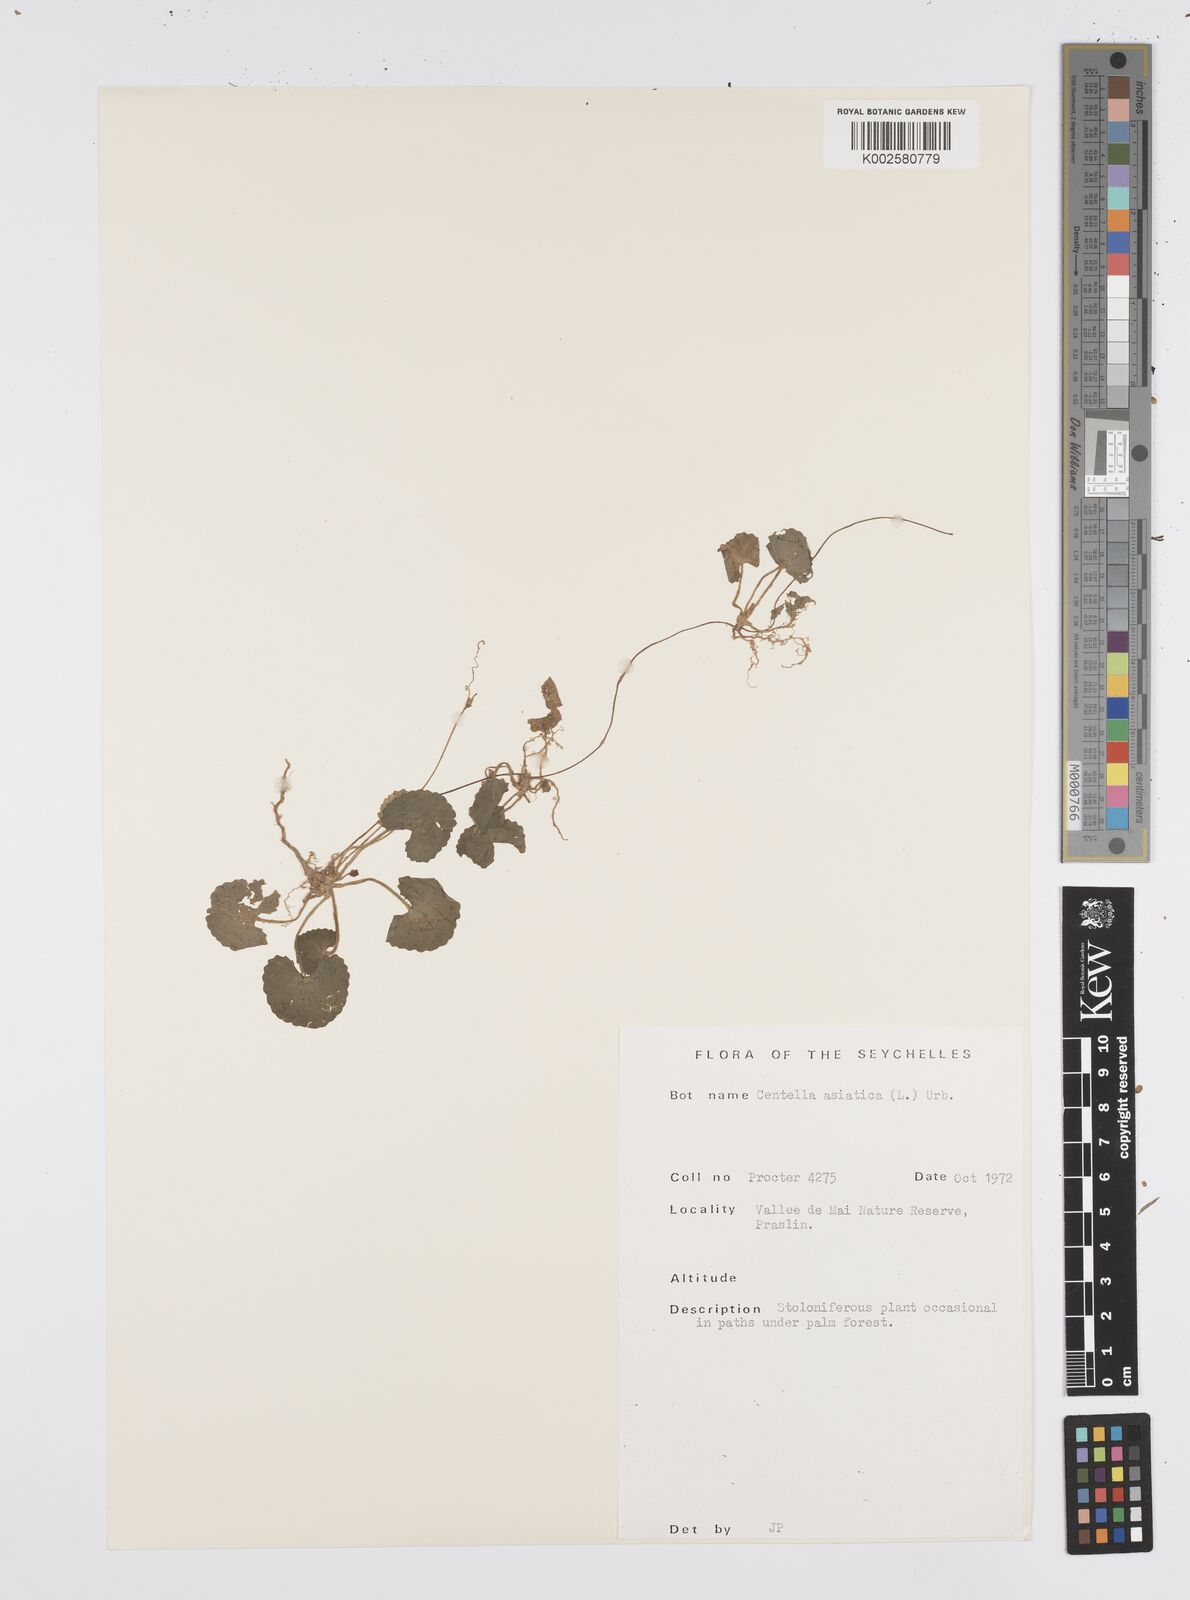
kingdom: Plantae
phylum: Tracheophyta
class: Magnoliopsida
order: Apiales
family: Apiaceae
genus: Centella
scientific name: Centella asiatica
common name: Spadeleaf
